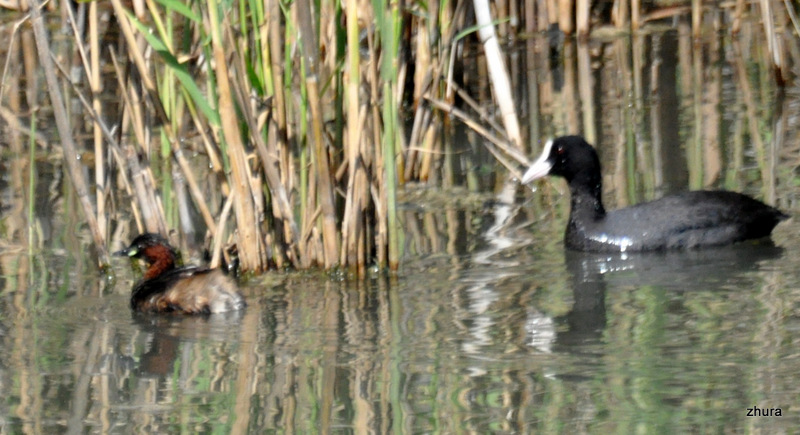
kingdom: Animalia
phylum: Chordata
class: Aves
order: Podicipediformes
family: Podicipedidae
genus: Tachybaptus
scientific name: Tachybaptus ruficollis
